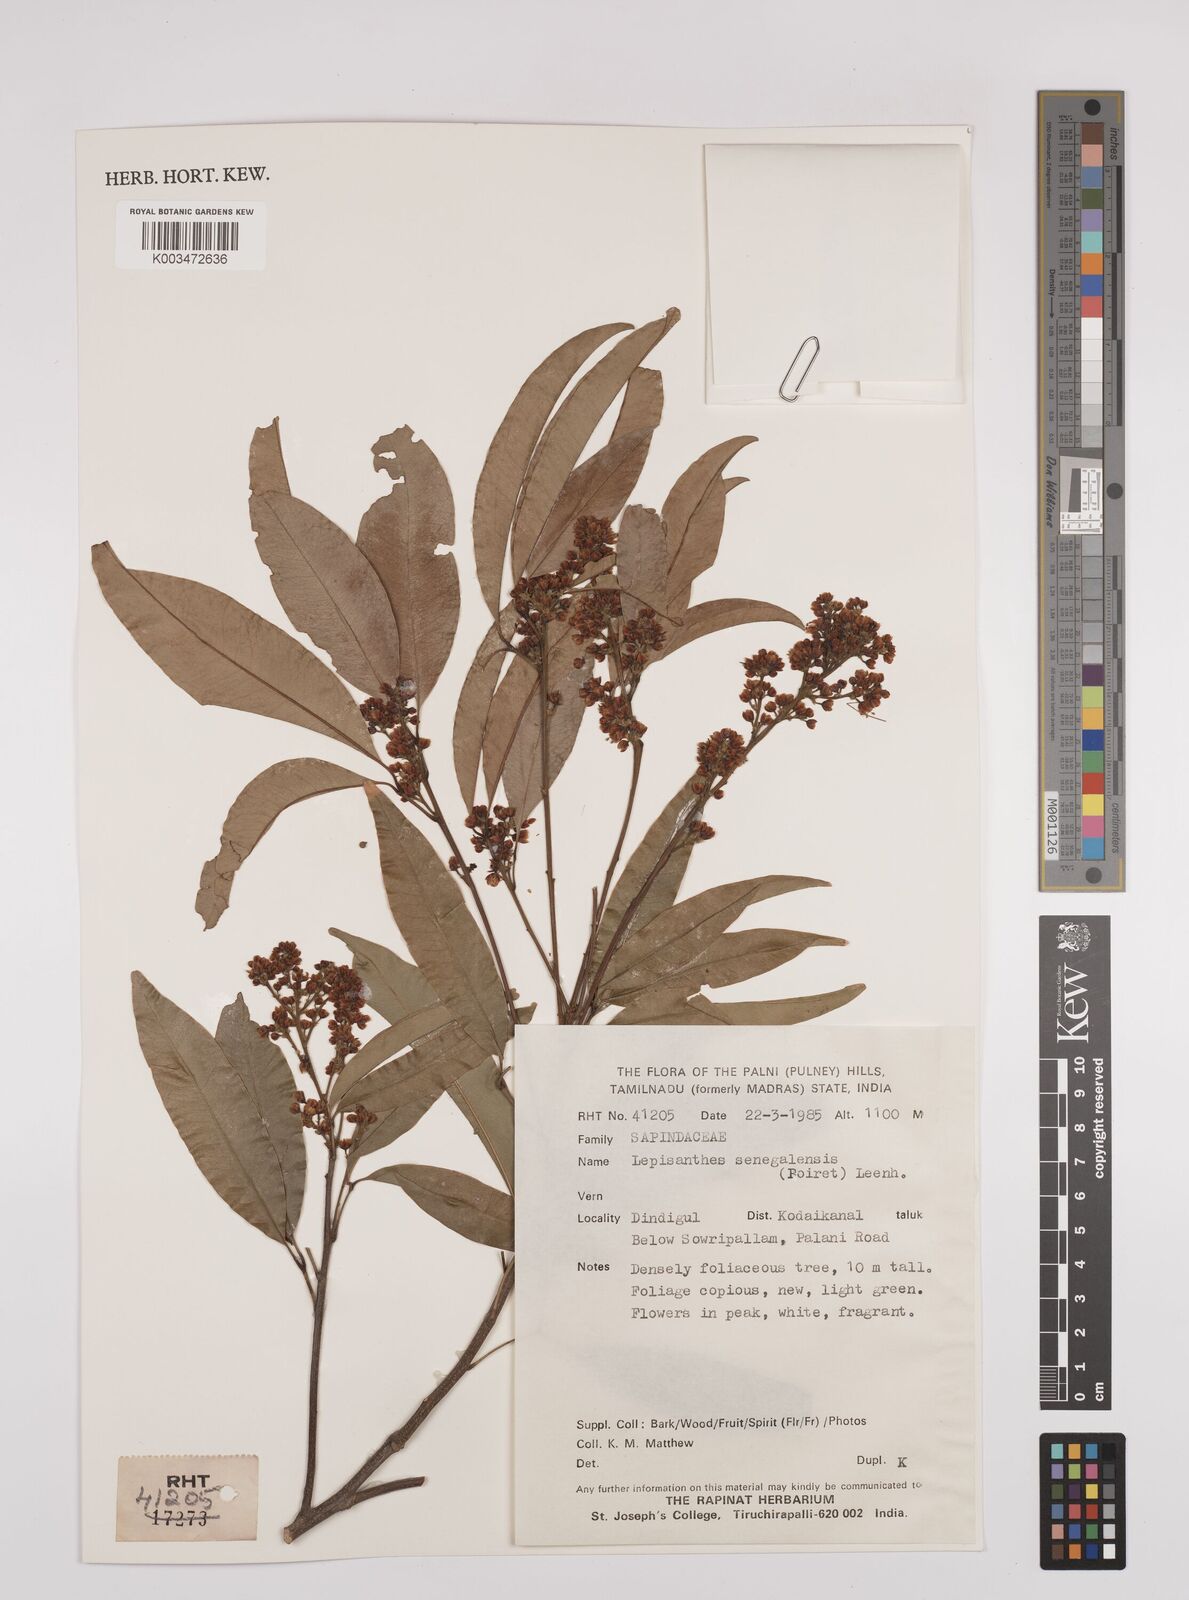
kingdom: Plantae
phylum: Tracheophyta
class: Magnoliopsida
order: Sapindales
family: Sapindaceae
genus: Lepisanthes
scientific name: Lepisanthes senegalensis
